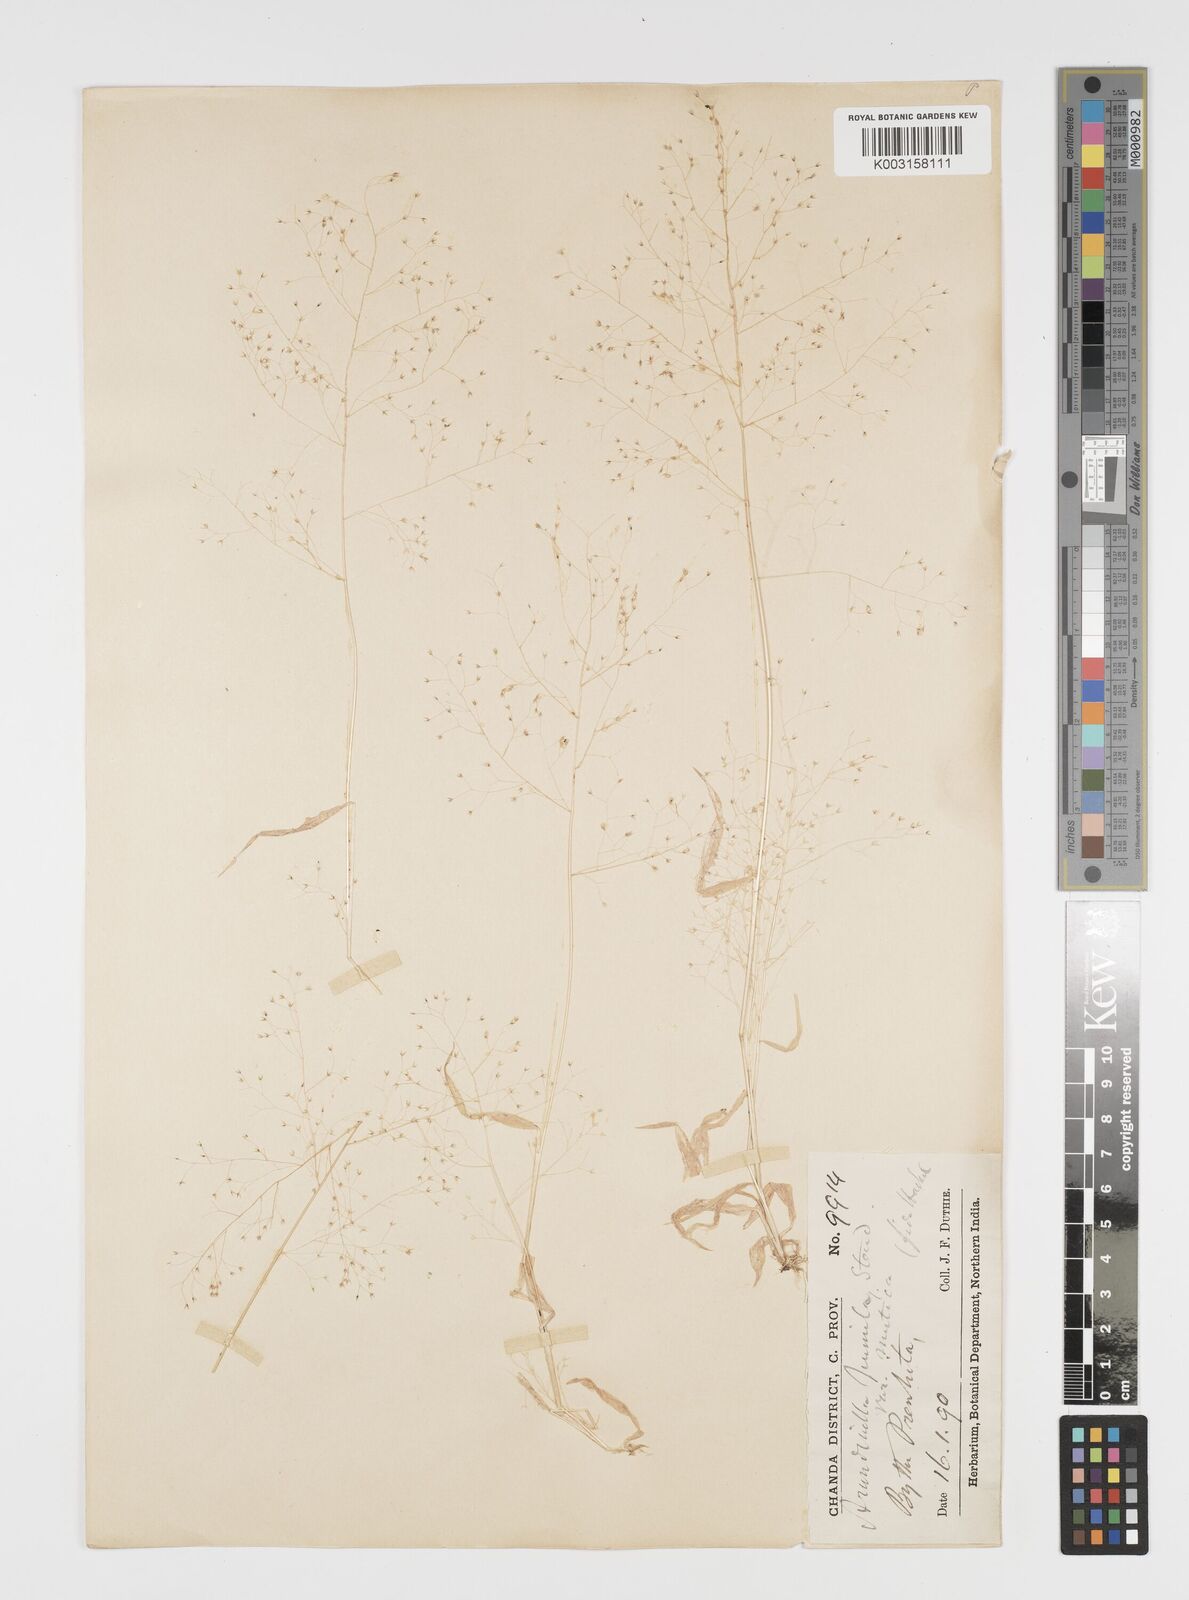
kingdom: Plantae
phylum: Tracheophyta
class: Liliopsida
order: Poales
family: Poaceae
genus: Arundinella
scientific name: Arundinella pumila
